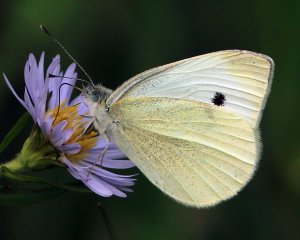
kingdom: Animalia
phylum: Arthropoda
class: Insecta
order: Lepidoptera
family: Pieridae
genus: Pieris
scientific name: Pieris rapae
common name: Cabbage White
